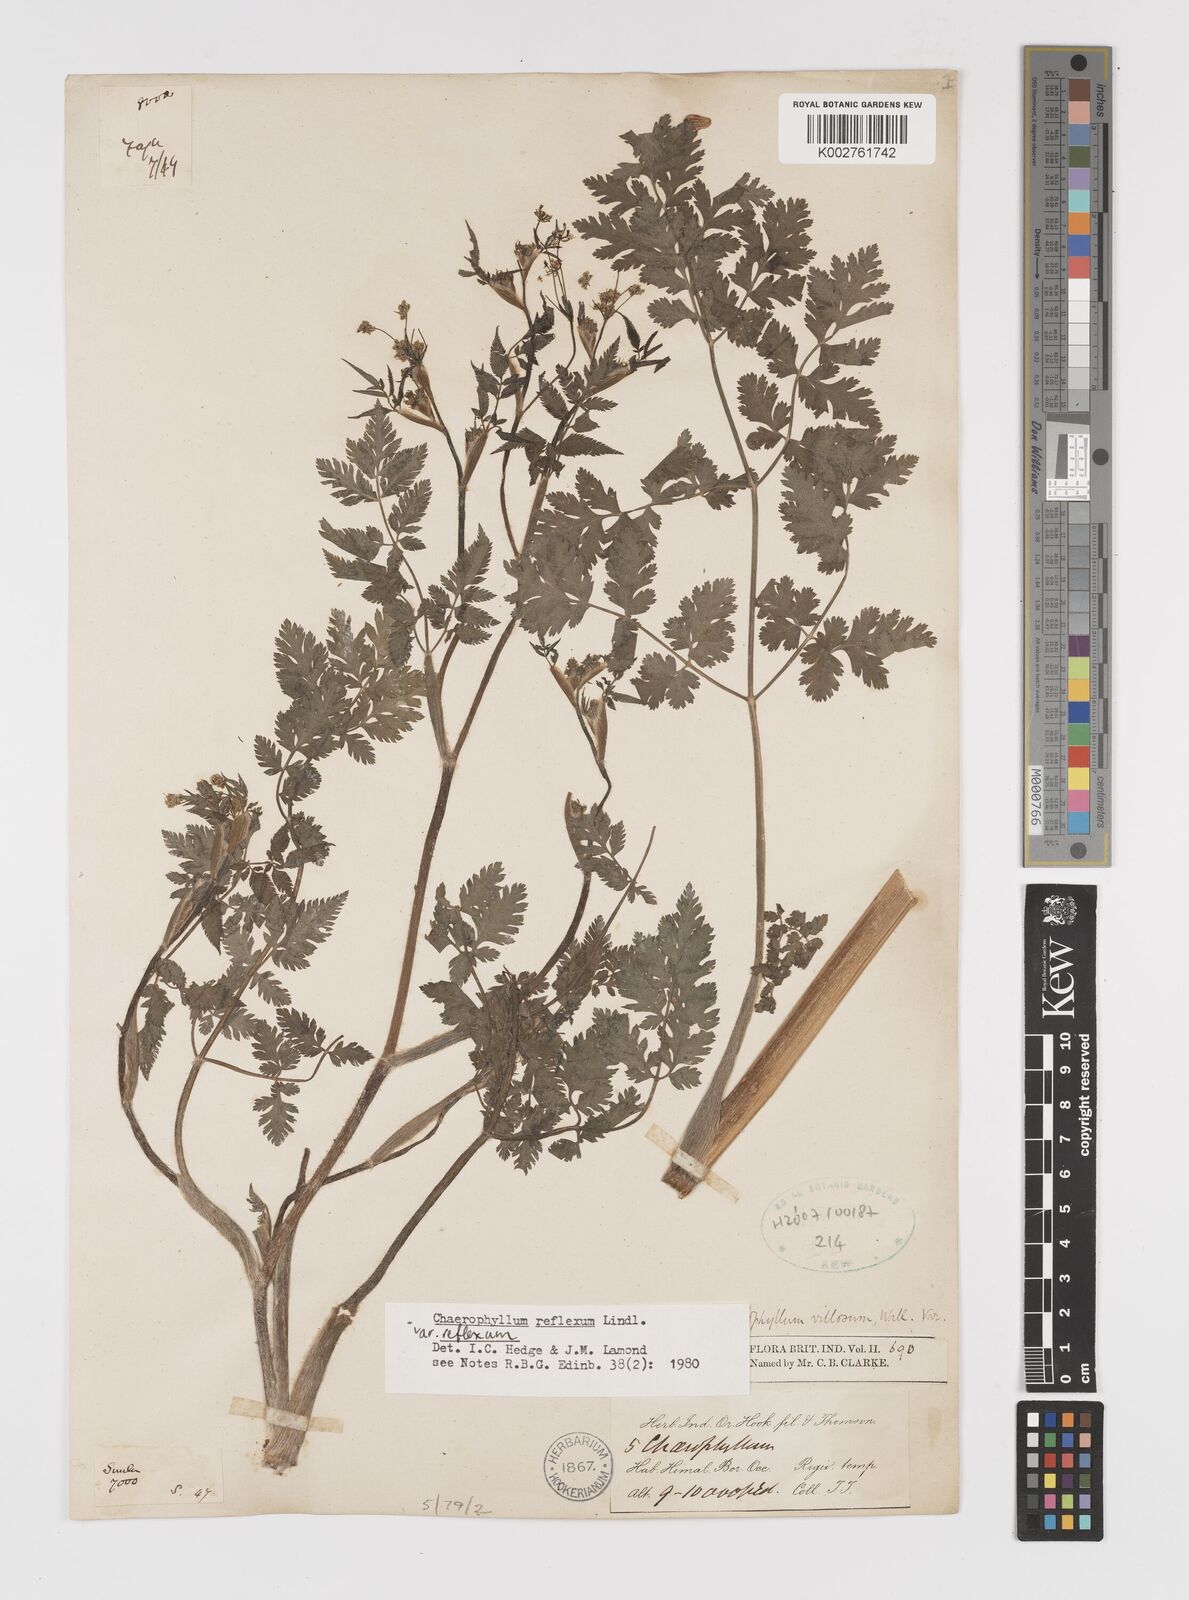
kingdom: Plantae
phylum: Tracheophyta
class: Magnoliopsida
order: Apiales
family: Apiaceae
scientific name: Apiaceae
